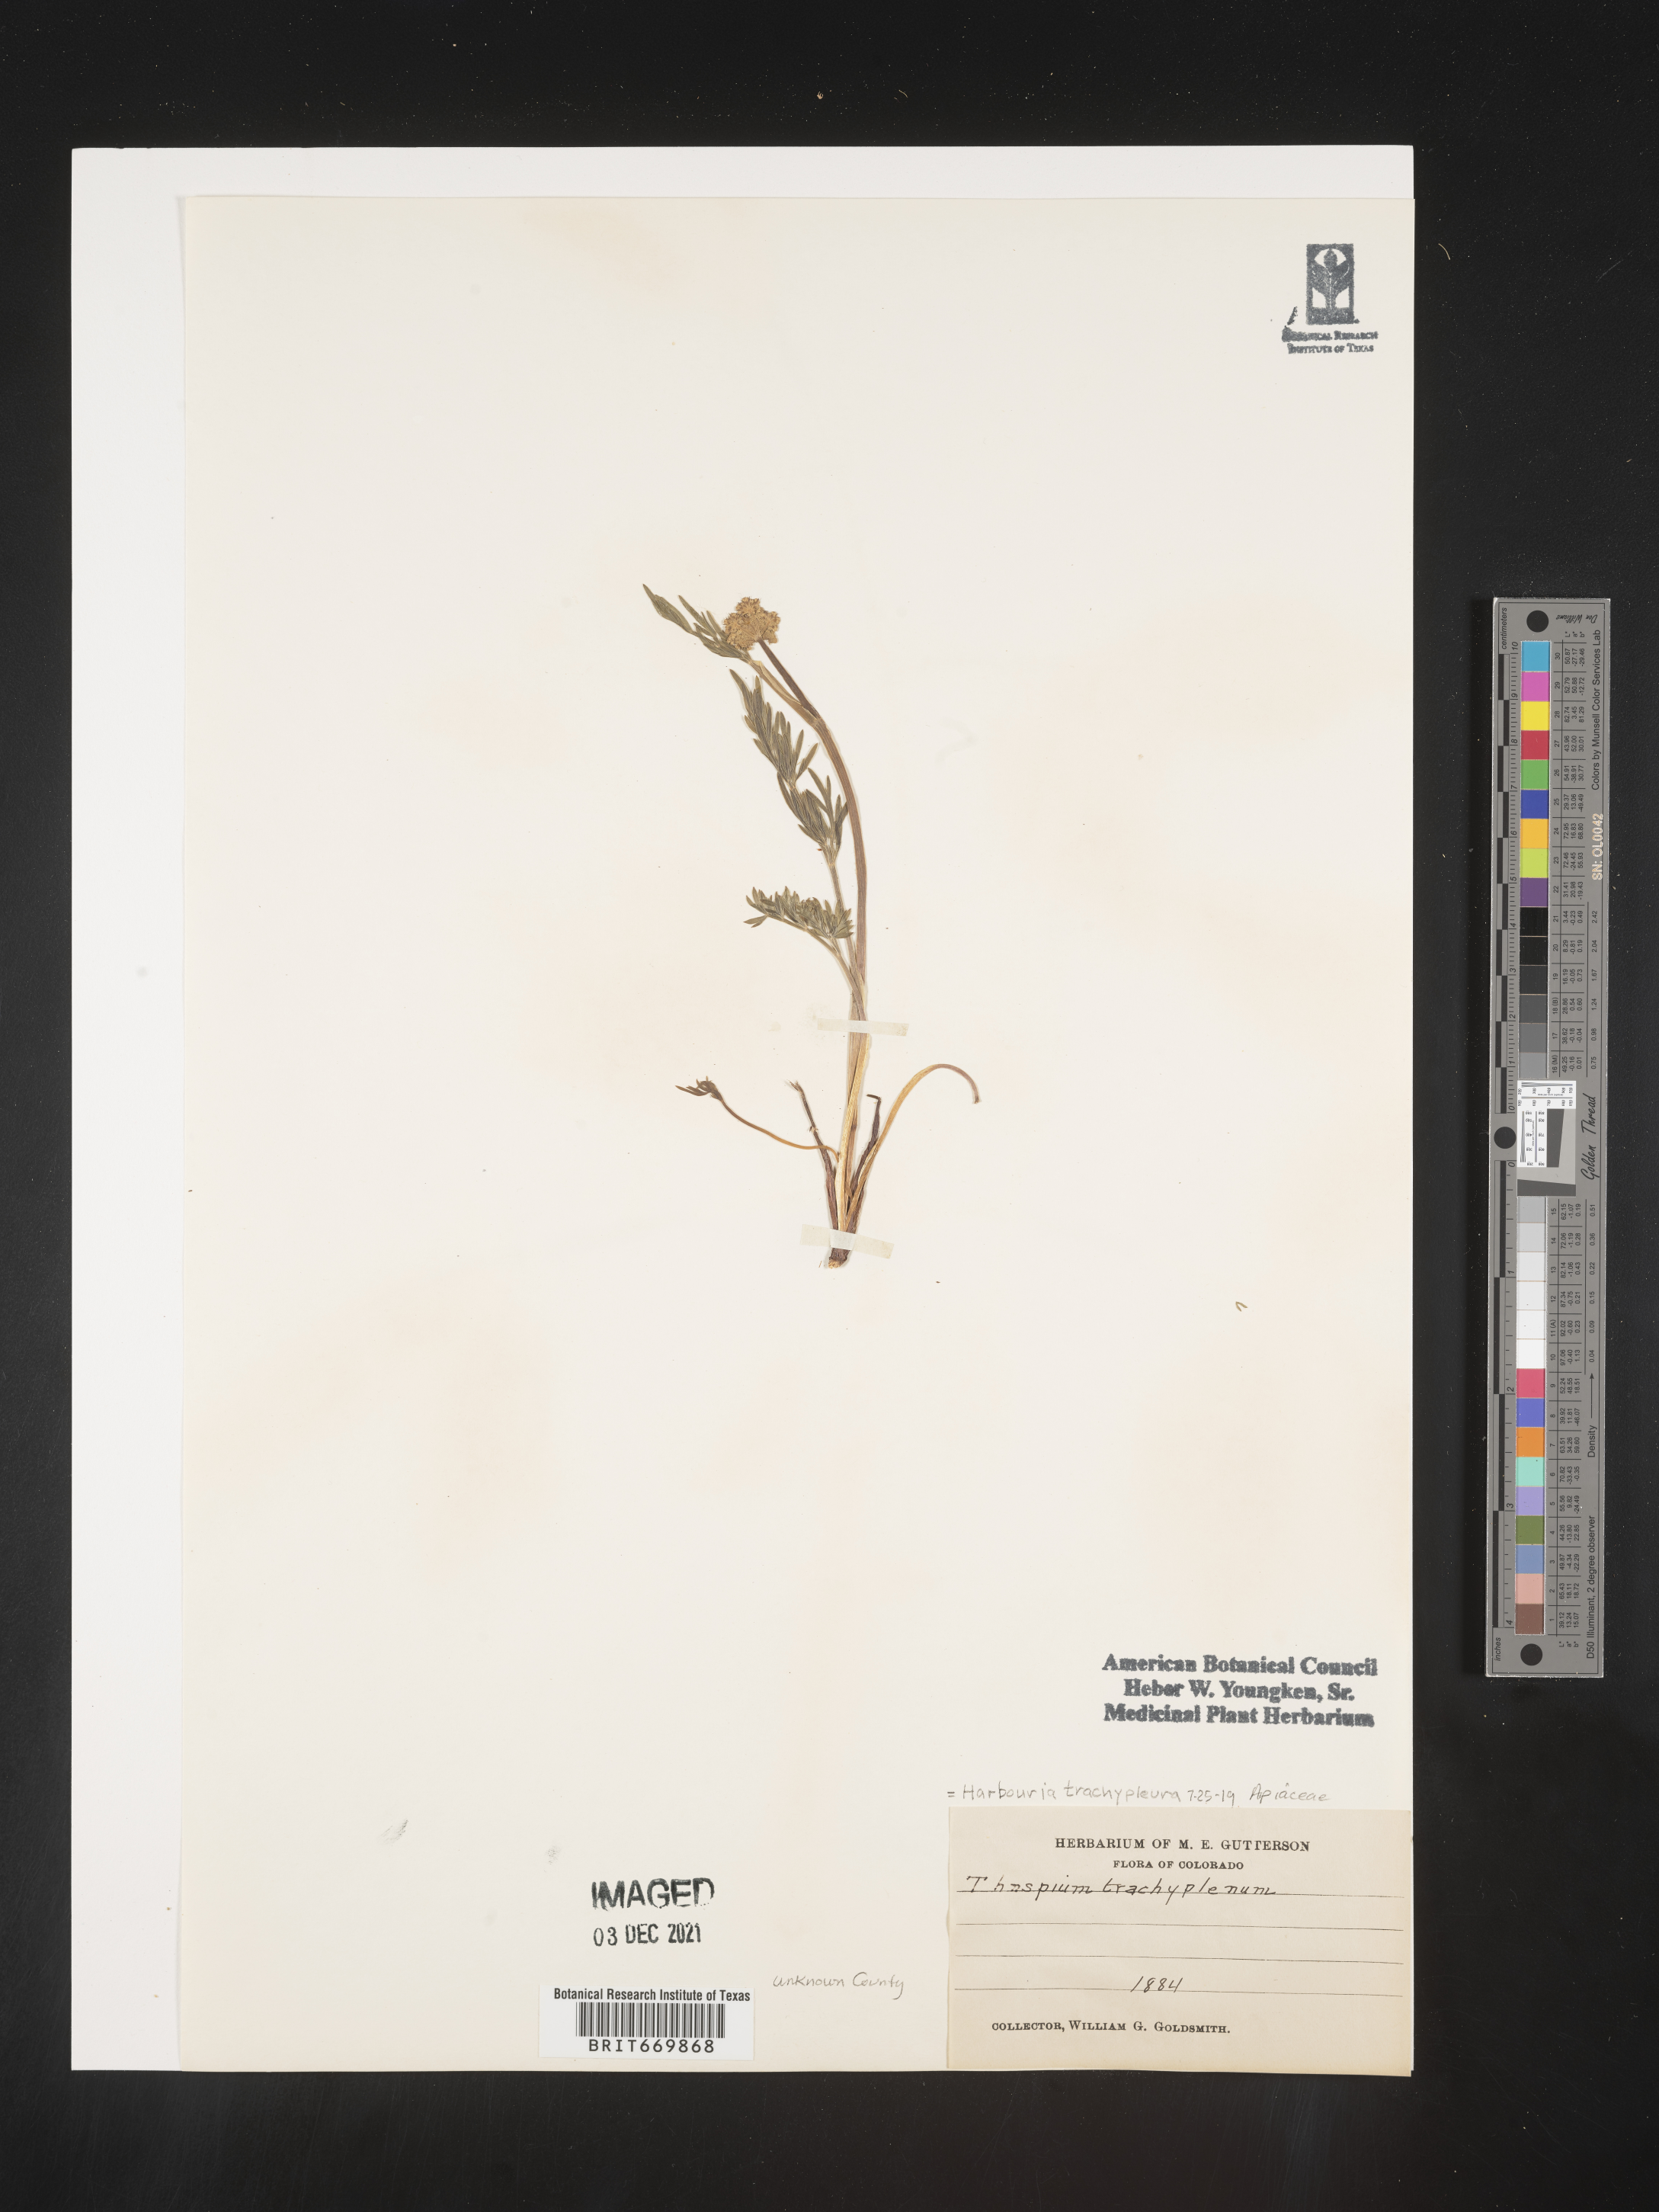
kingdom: Plantae
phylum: Tracheophyta
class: Magnoliopsida
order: Apiales
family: Apiaceae
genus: Harbouria
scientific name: Harbouria
